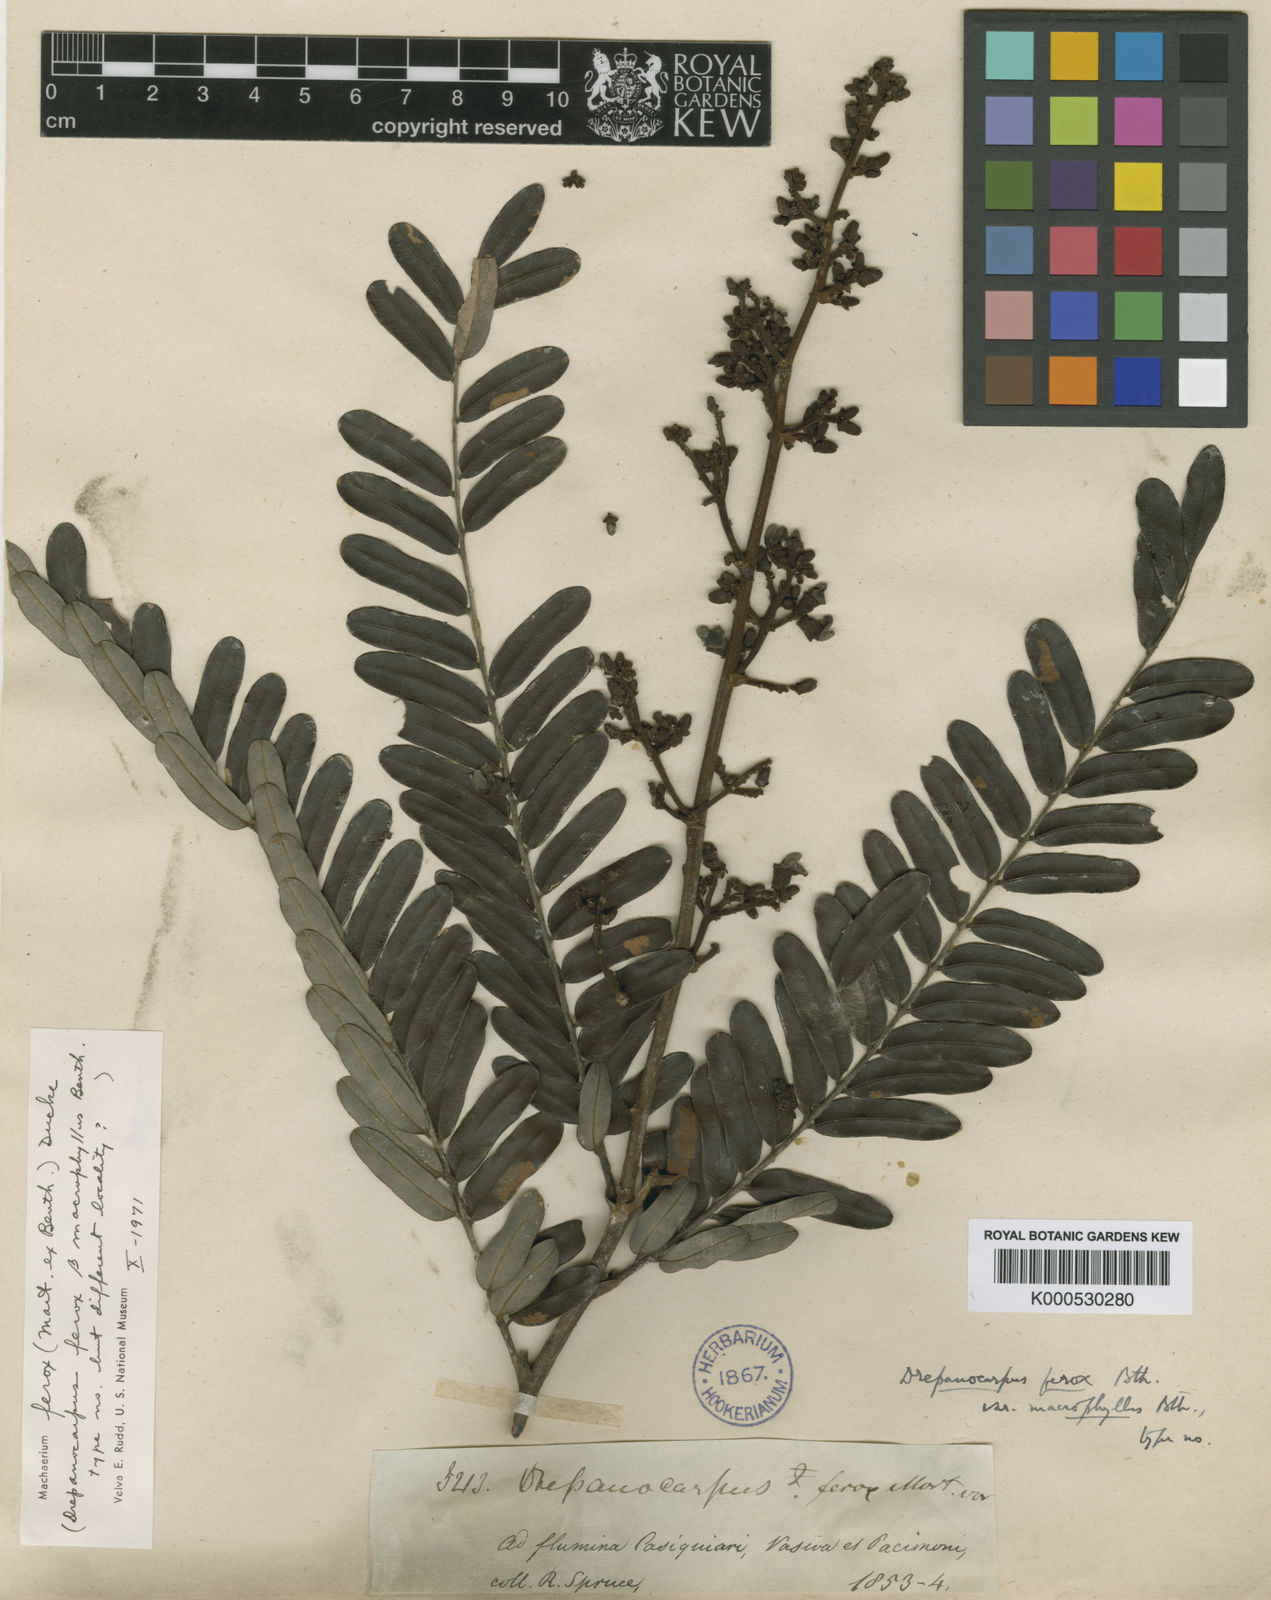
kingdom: Plantae
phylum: Tracheophyta
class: Magnoliopsida
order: Fabales
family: Fabaceae
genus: Machaerium
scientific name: Machaerium ferox
